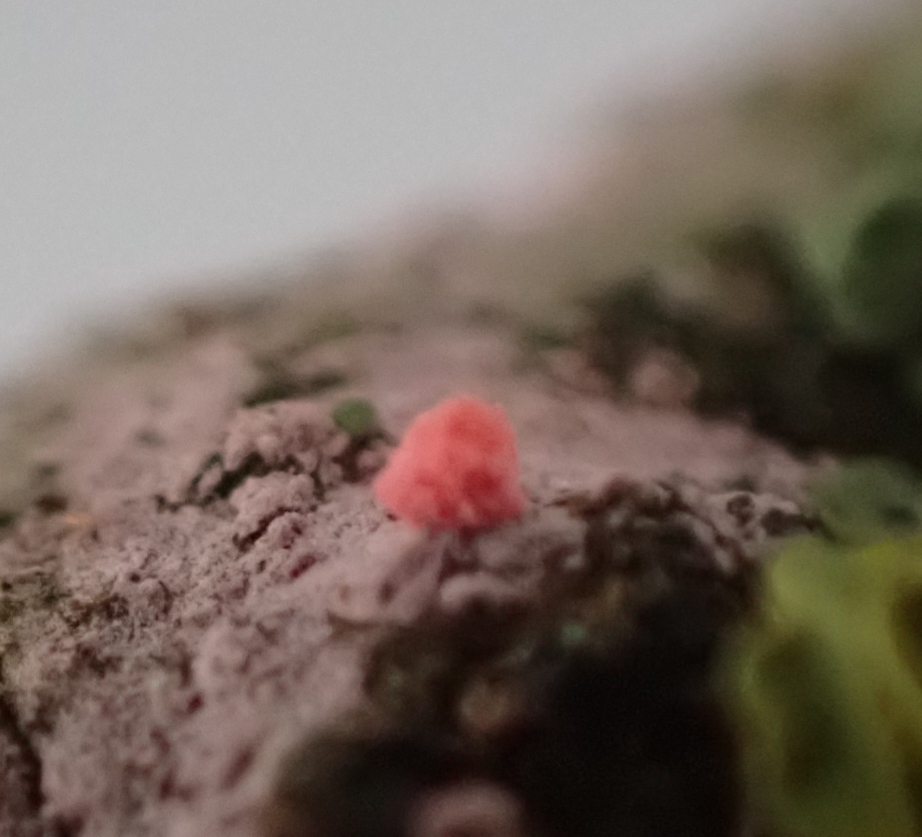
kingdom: Fungi
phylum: Ascomycota
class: Sordariomycetes
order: Hypocreales
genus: Illosporiopsis
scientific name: Illosporiopsis christiansenii
